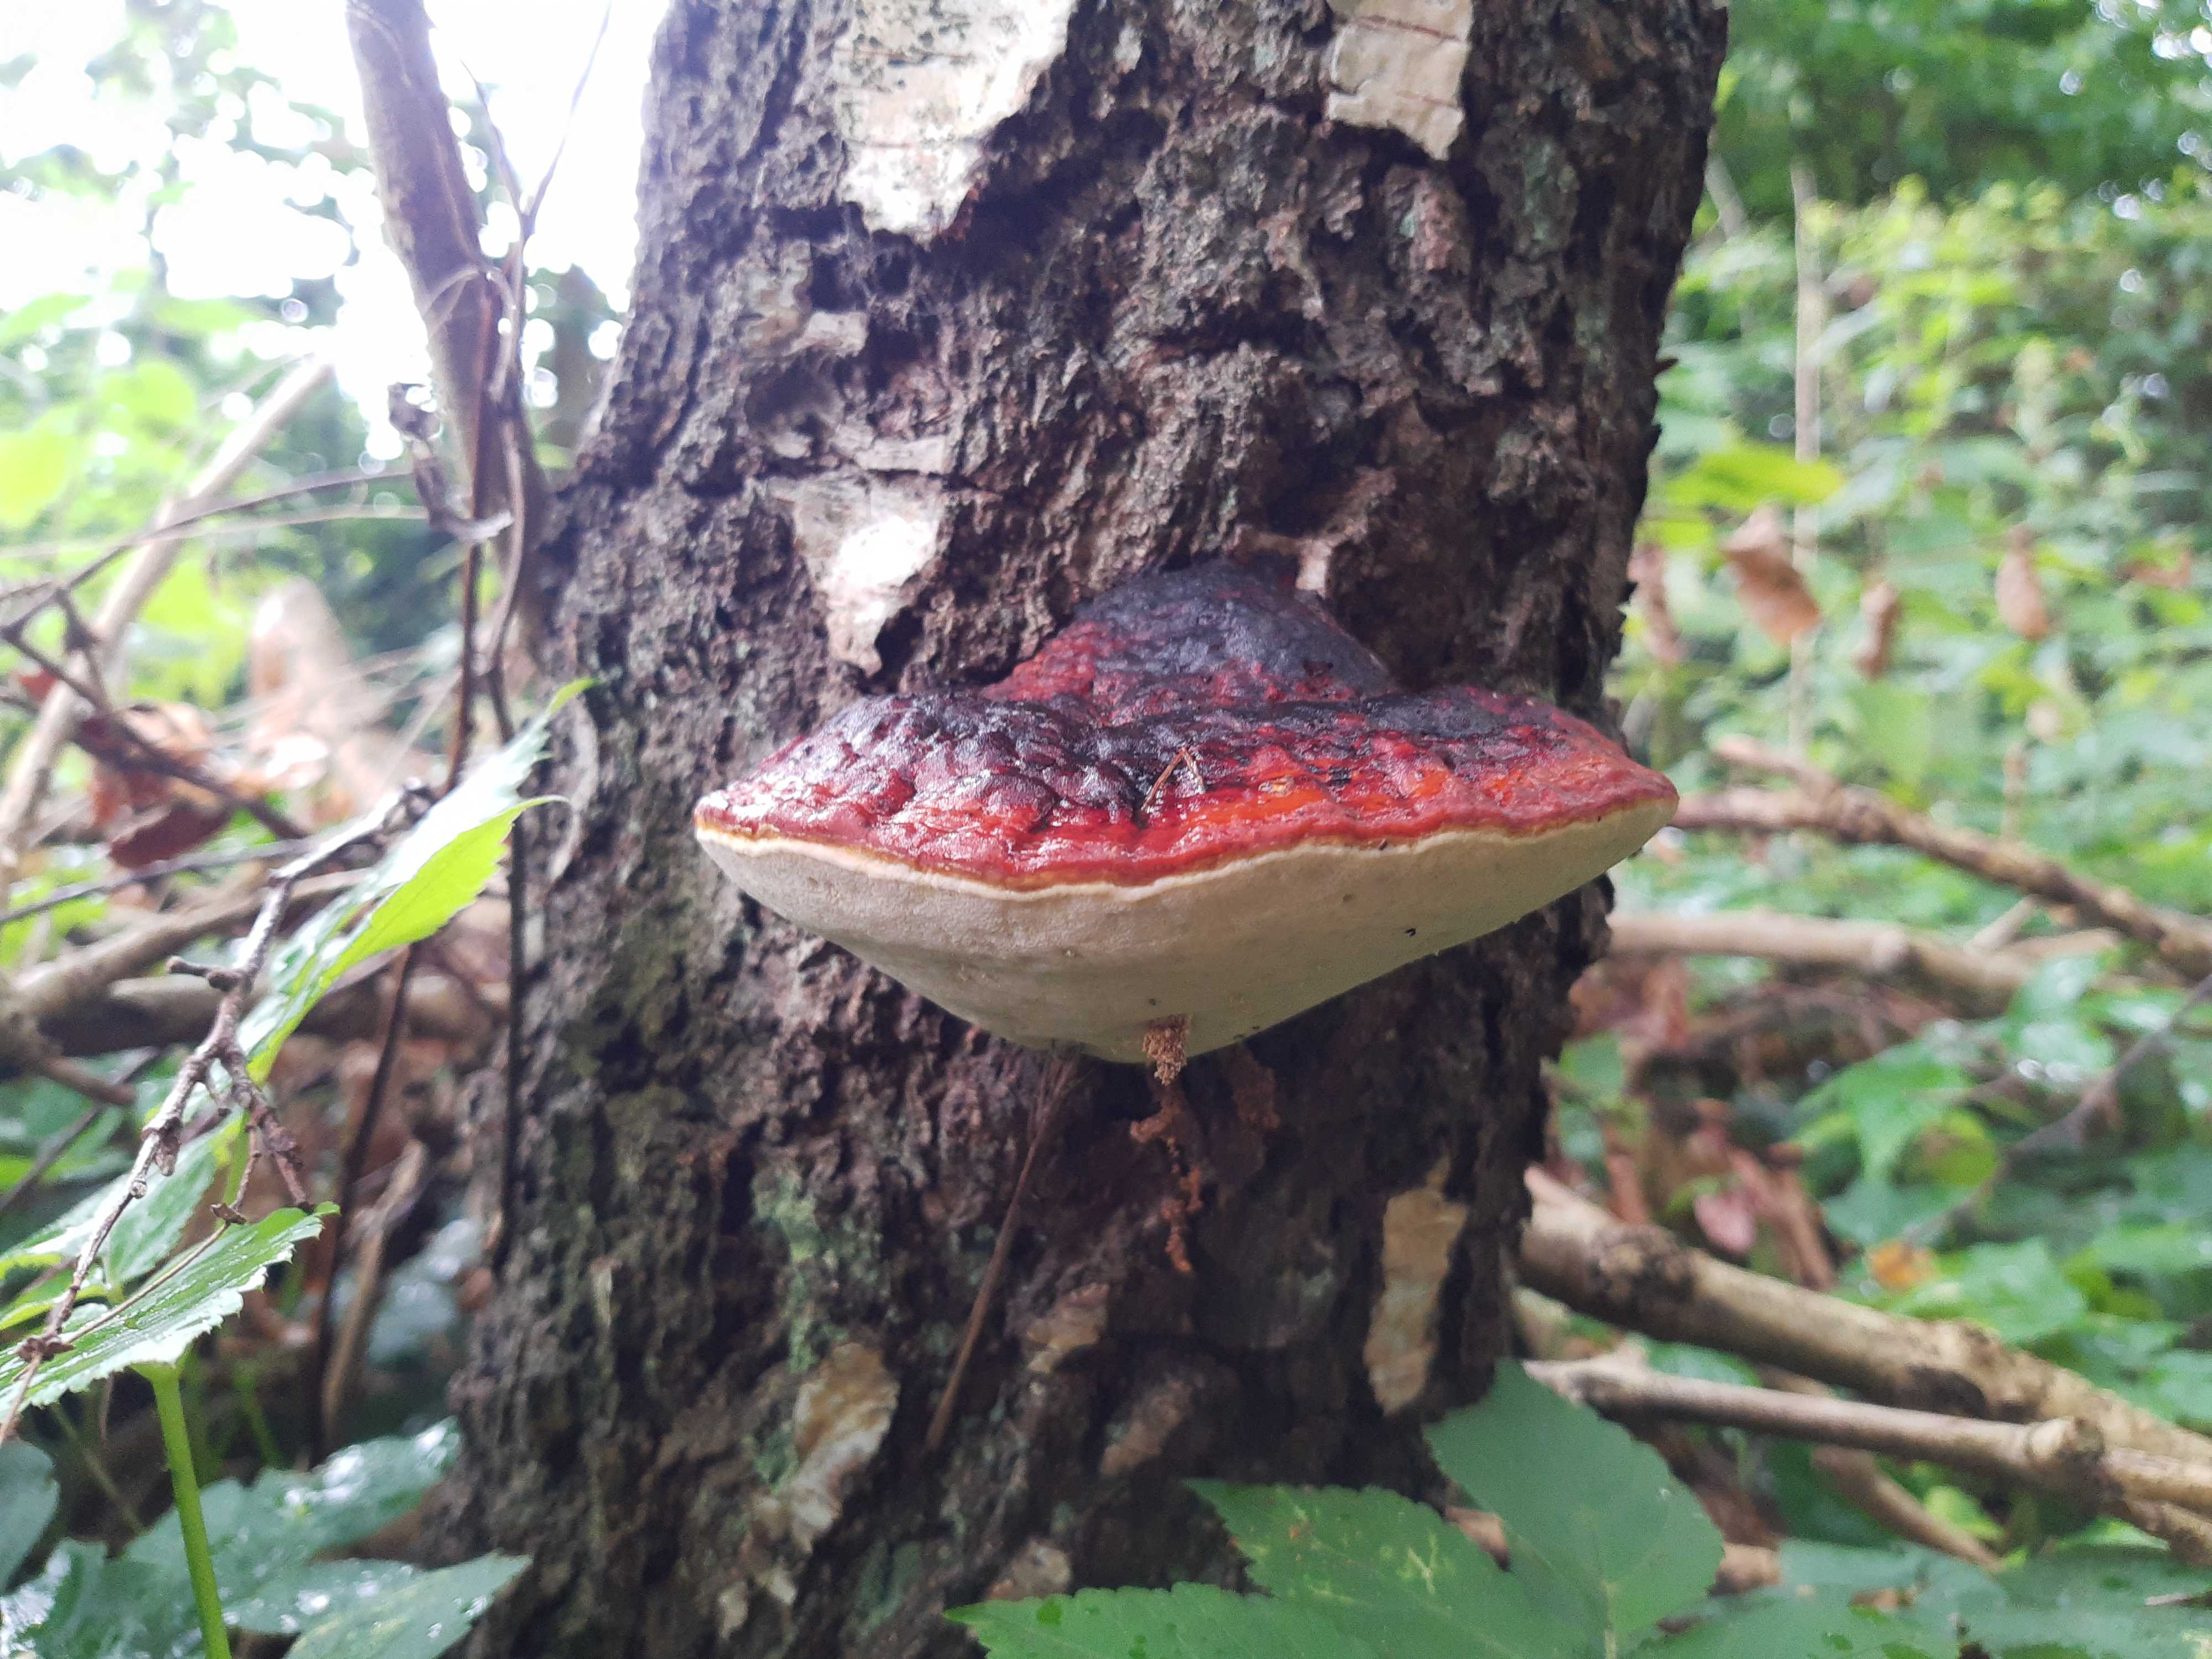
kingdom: Fungi
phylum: Basidiomycota
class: Agaricomycetes
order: Polyporales
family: Fomitopsidaceae
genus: Fomitopsis
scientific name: Fomitopsis pinicola
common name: randbæltet hovporesvamp
